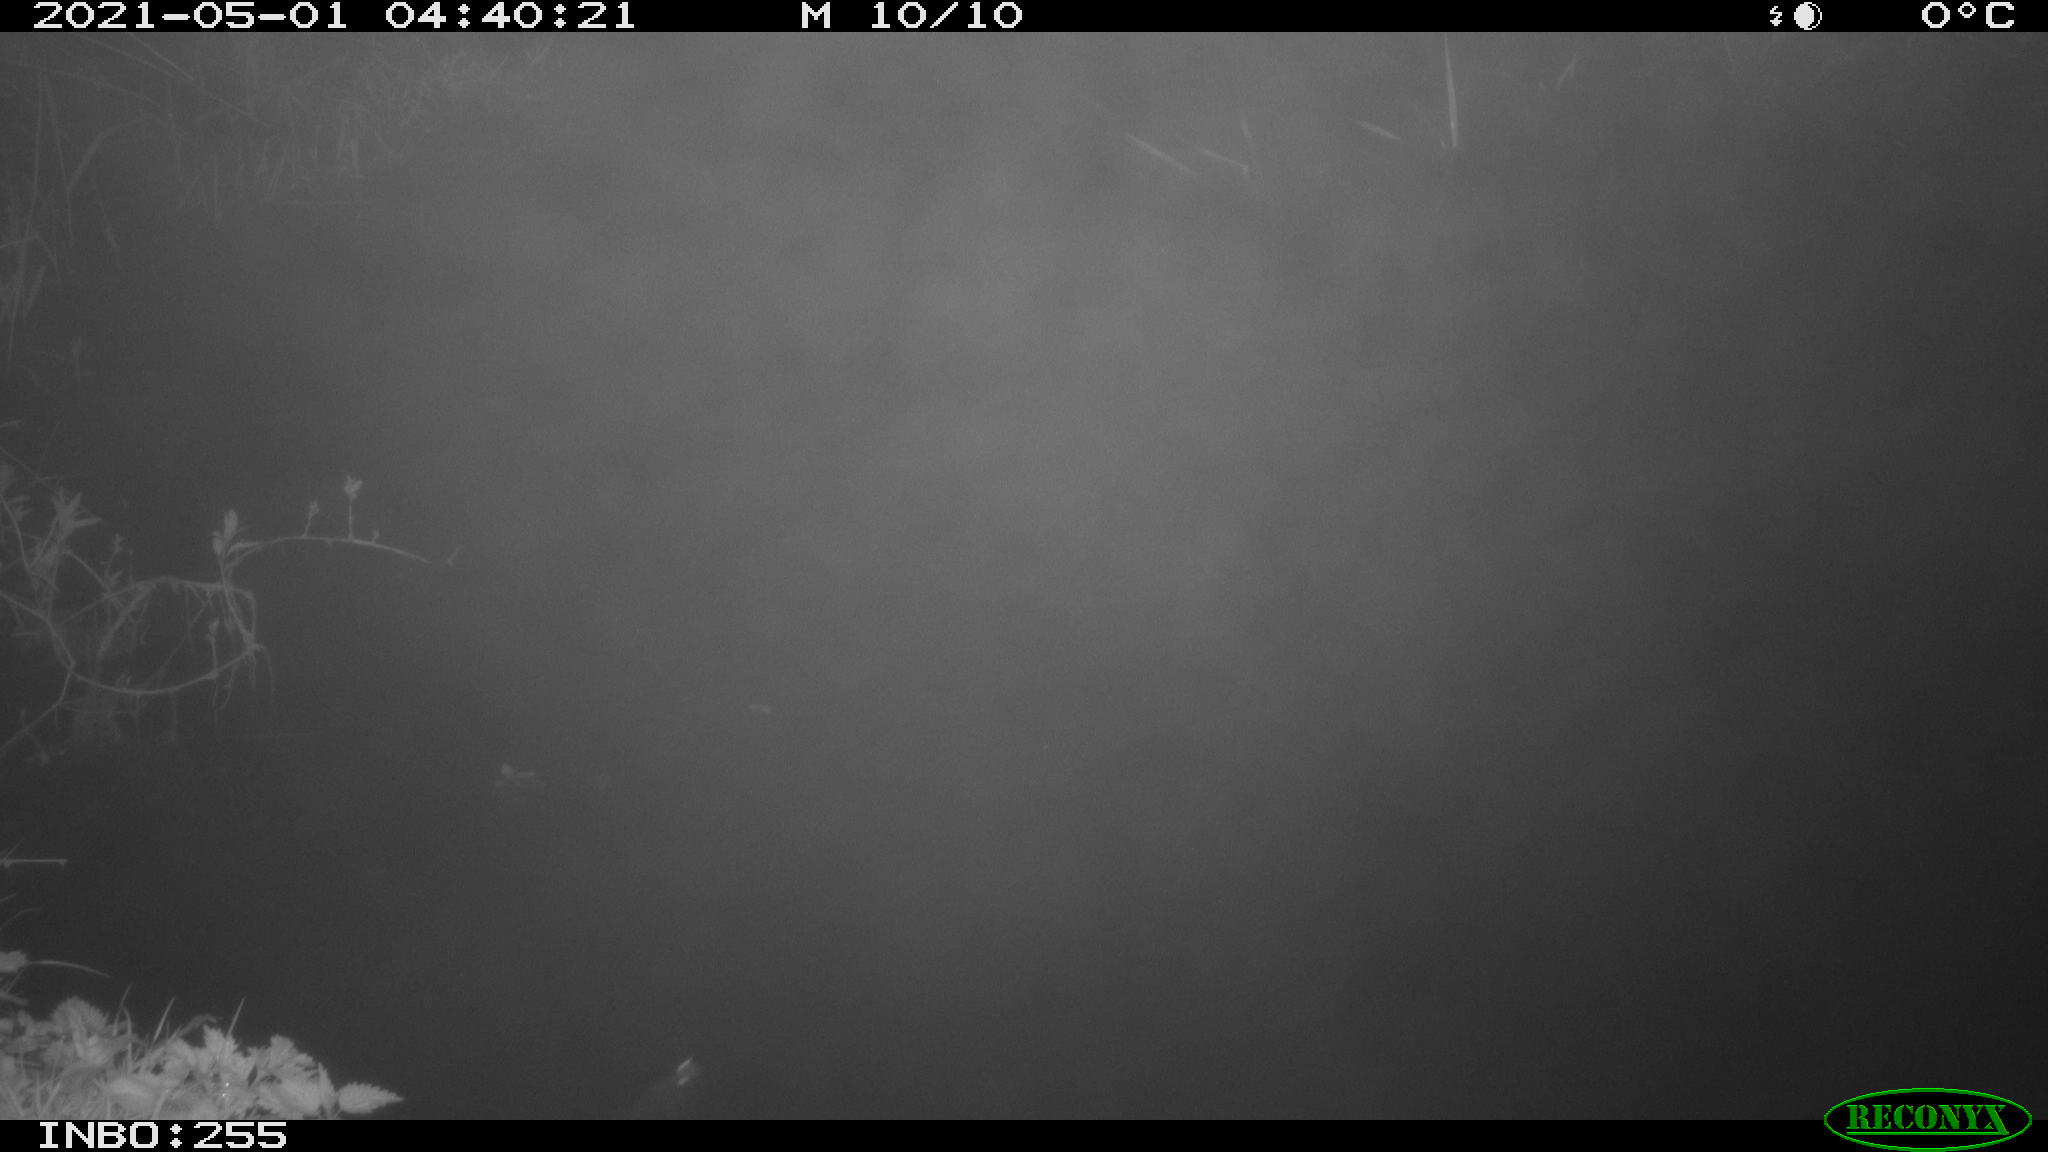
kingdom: Animalia
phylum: Chordata
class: Aves
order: Anseriformes
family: Anatidae
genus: Anas
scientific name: Anas platyrhynchos
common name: Mallard
